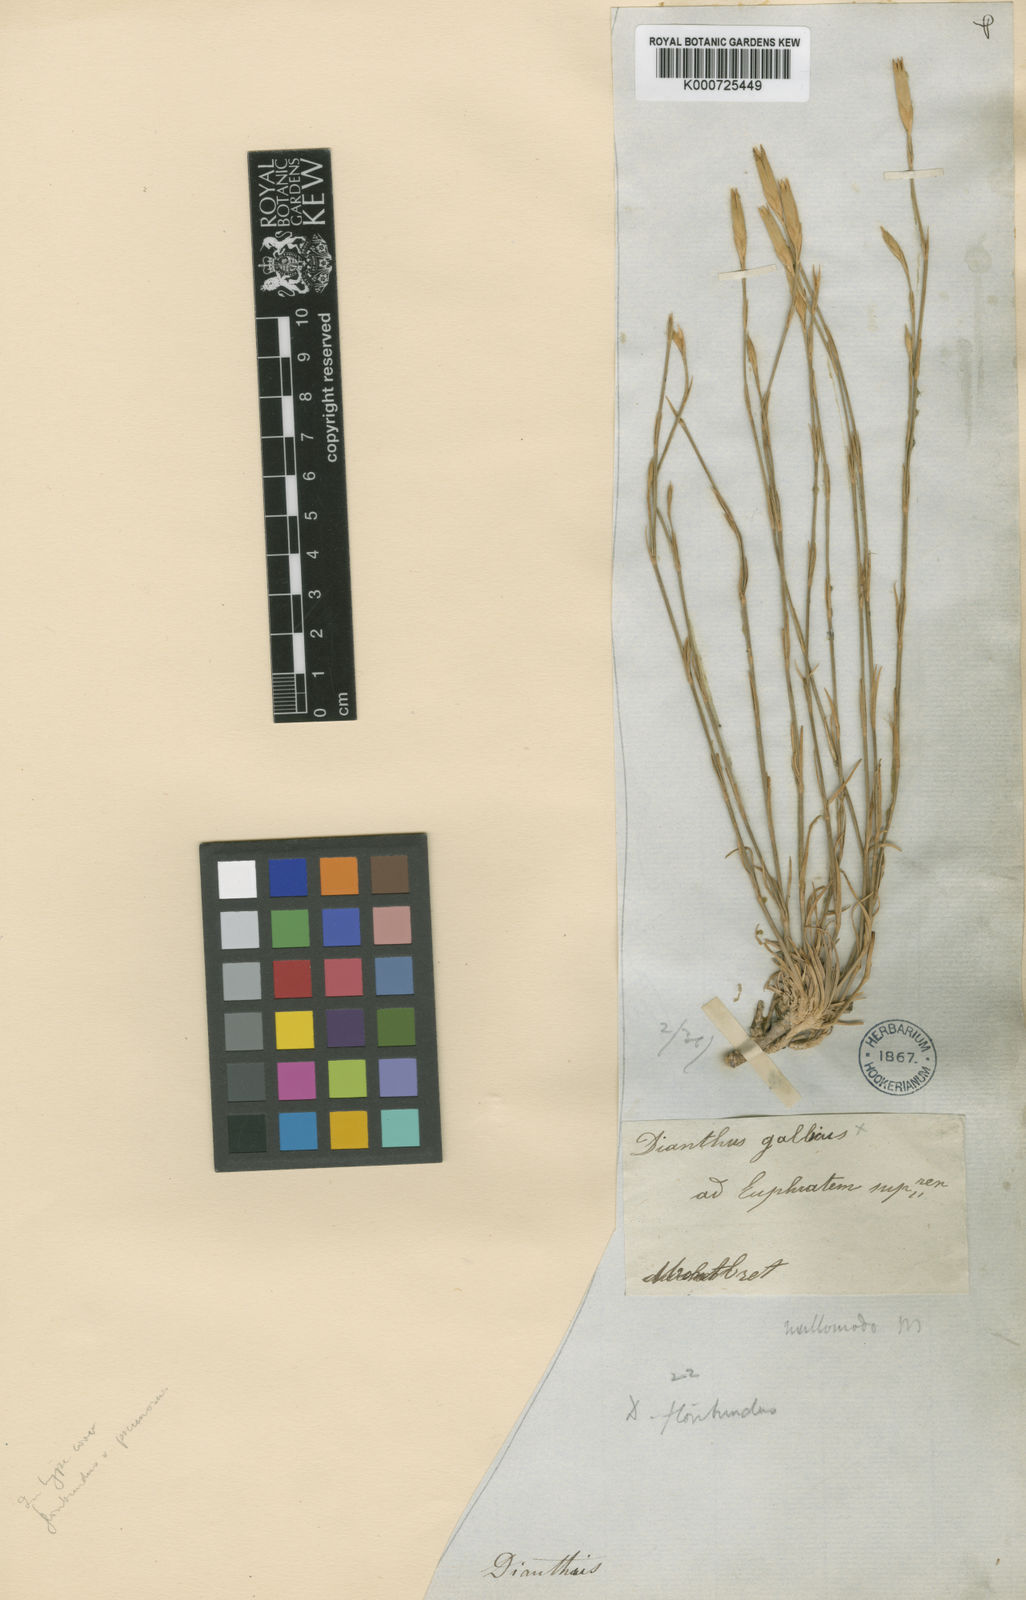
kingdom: Plantae
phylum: Tracheophyta
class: Magnoliopsida
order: Caryophyllales
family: Caryophyllaceae
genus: Dianthus
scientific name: Dianthus floribundus
